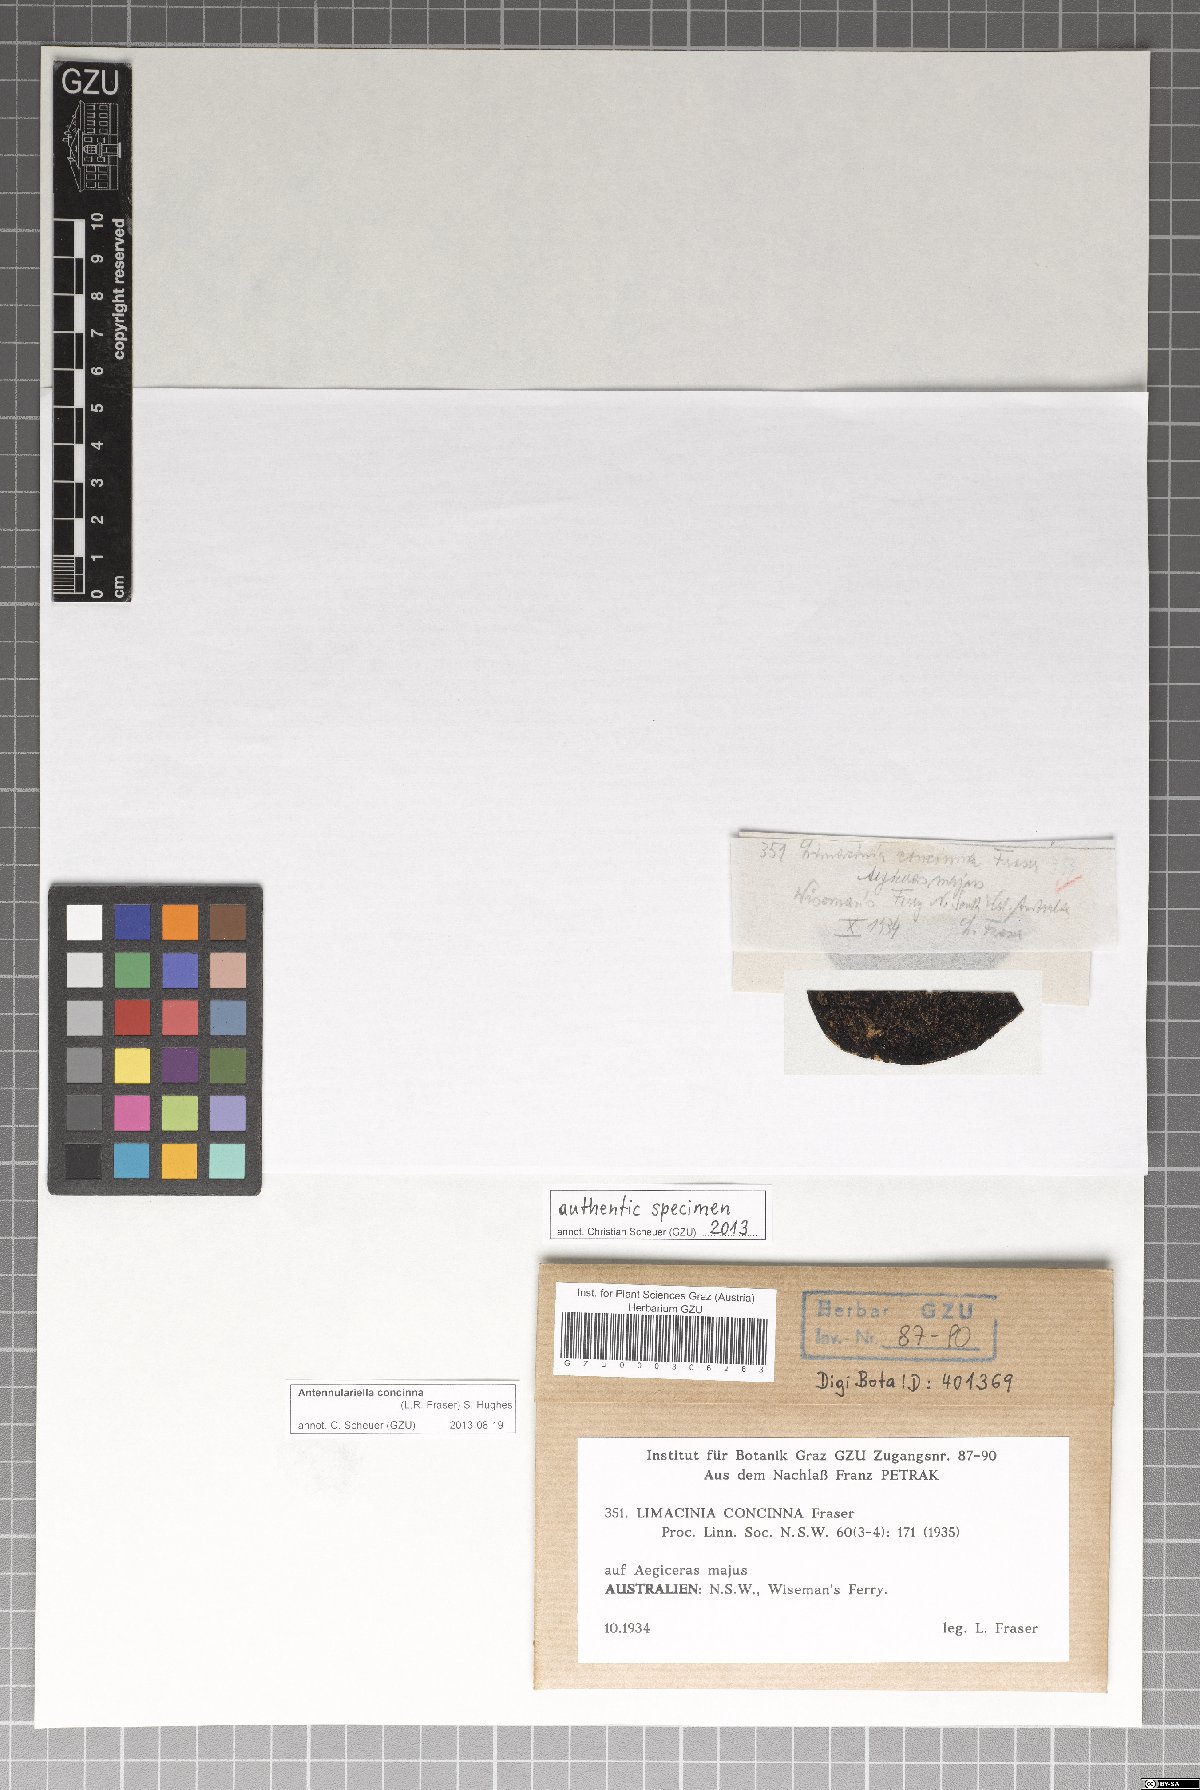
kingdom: Fungi
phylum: Ascomycota
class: Dothideomycetes
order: Capnodiales
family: Antennulariellaceae
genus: Antennulariella
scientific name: Antennulariella concinna
